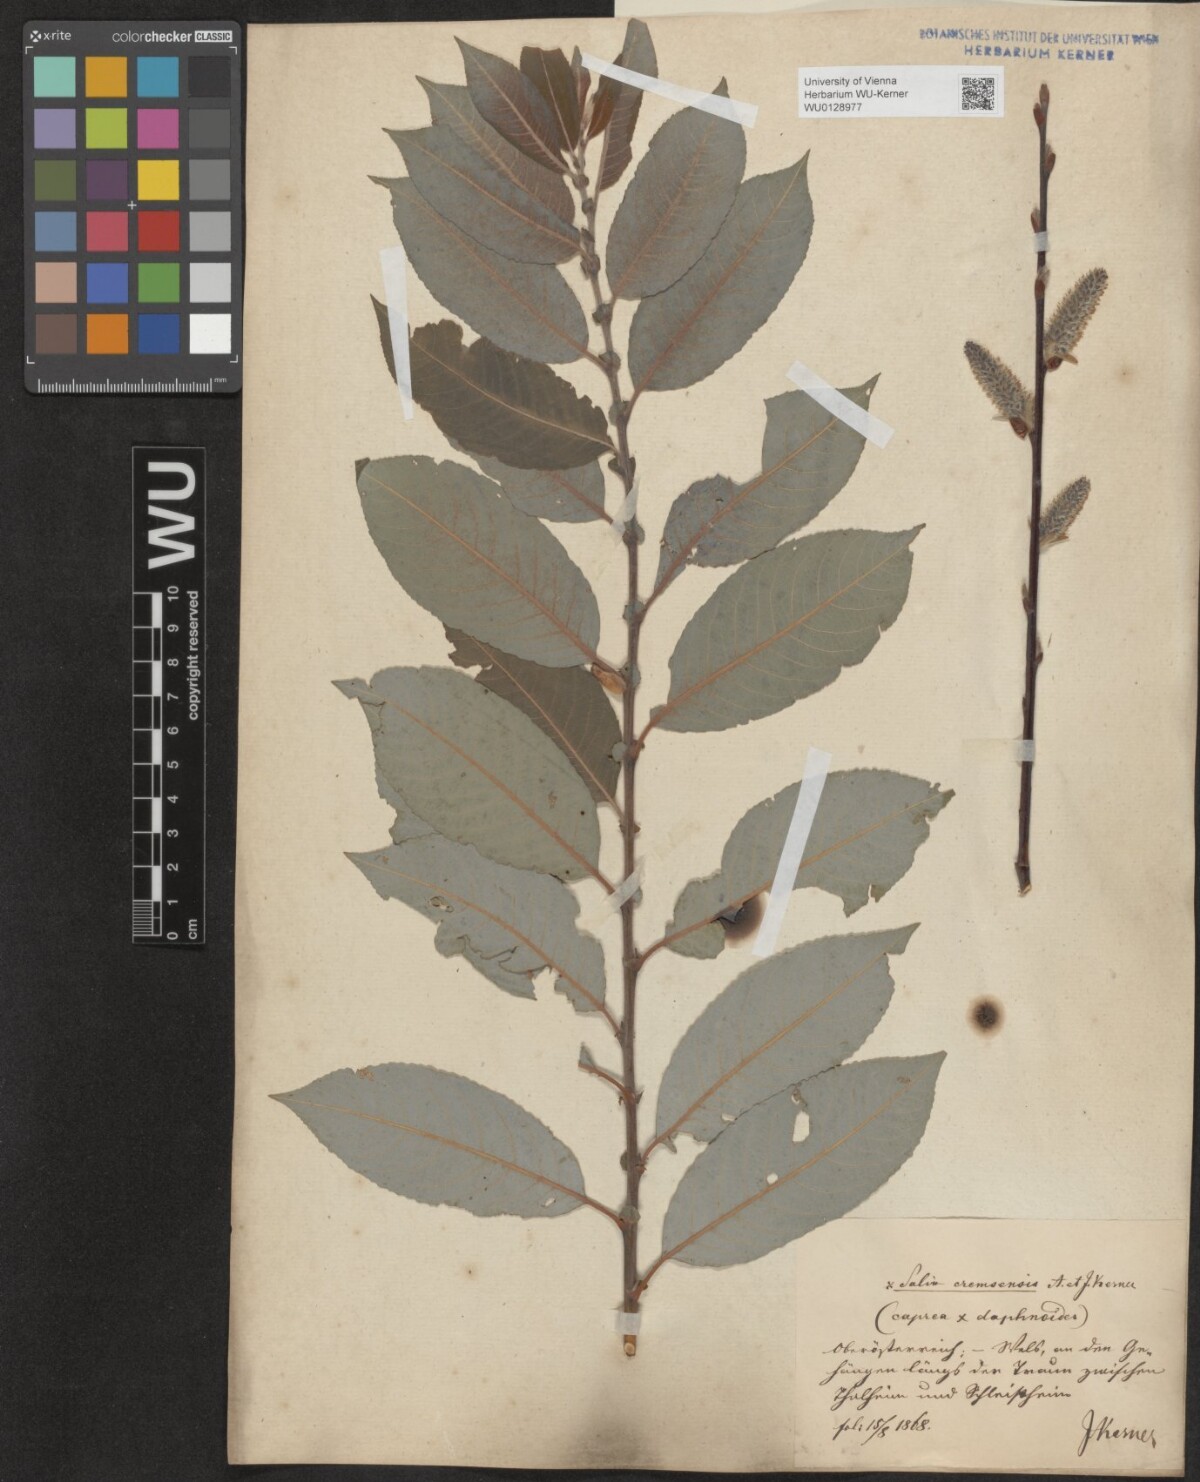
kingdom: Plantae
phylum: Tracheophyta
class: Magnoliopsida
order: Malpighiales
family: Salicaceae
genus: Salix
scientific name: Salix erdingeri
